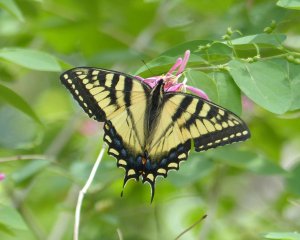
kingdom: Animalia
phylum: Arthropoda
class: Insecta
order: Lepidoptera
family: Papilionidae
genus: Pterourus
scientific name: Pterourus canadensis
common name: Canadian Tiger Swallowtail
